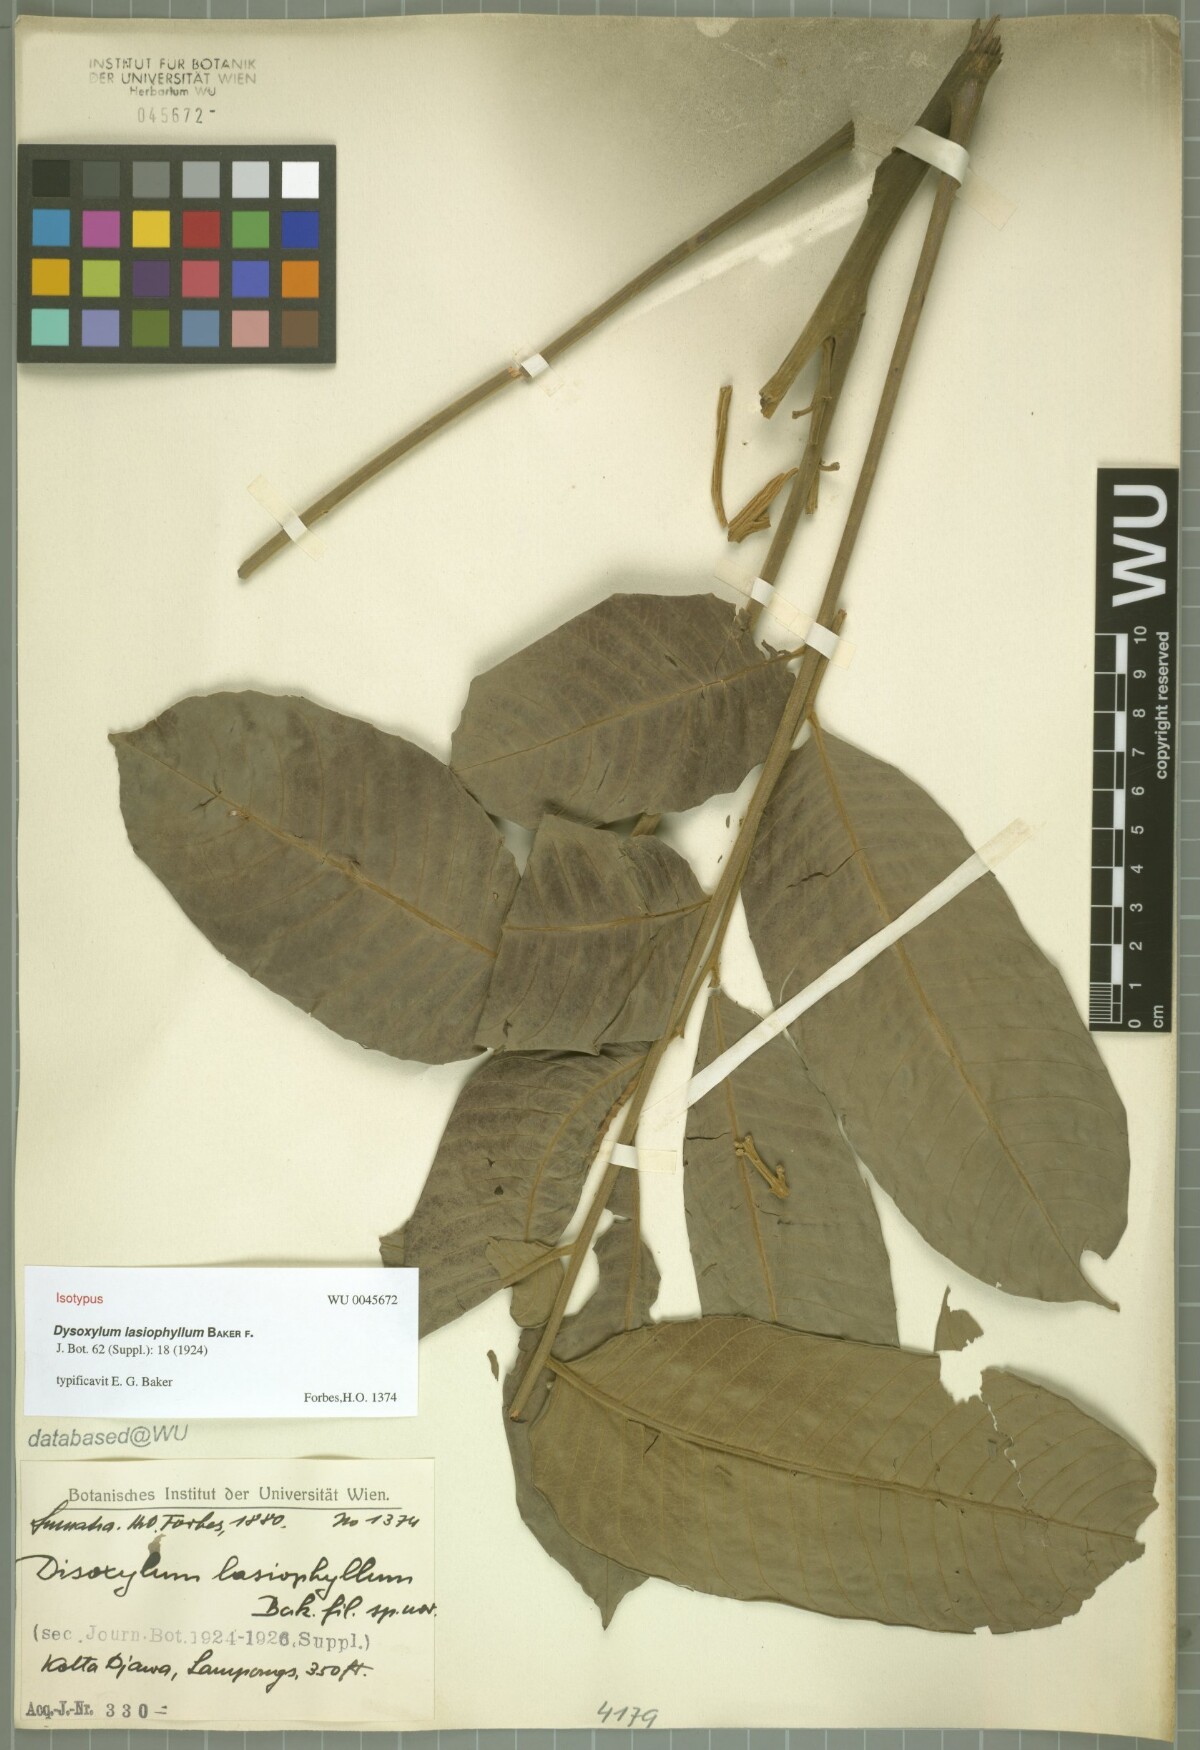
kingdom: Plantae
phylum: Tracheophyta
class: Magnoliopsida
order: Sapindales
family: Meliaceae
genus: Dysoxylum
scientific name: Dysoxylum grande
